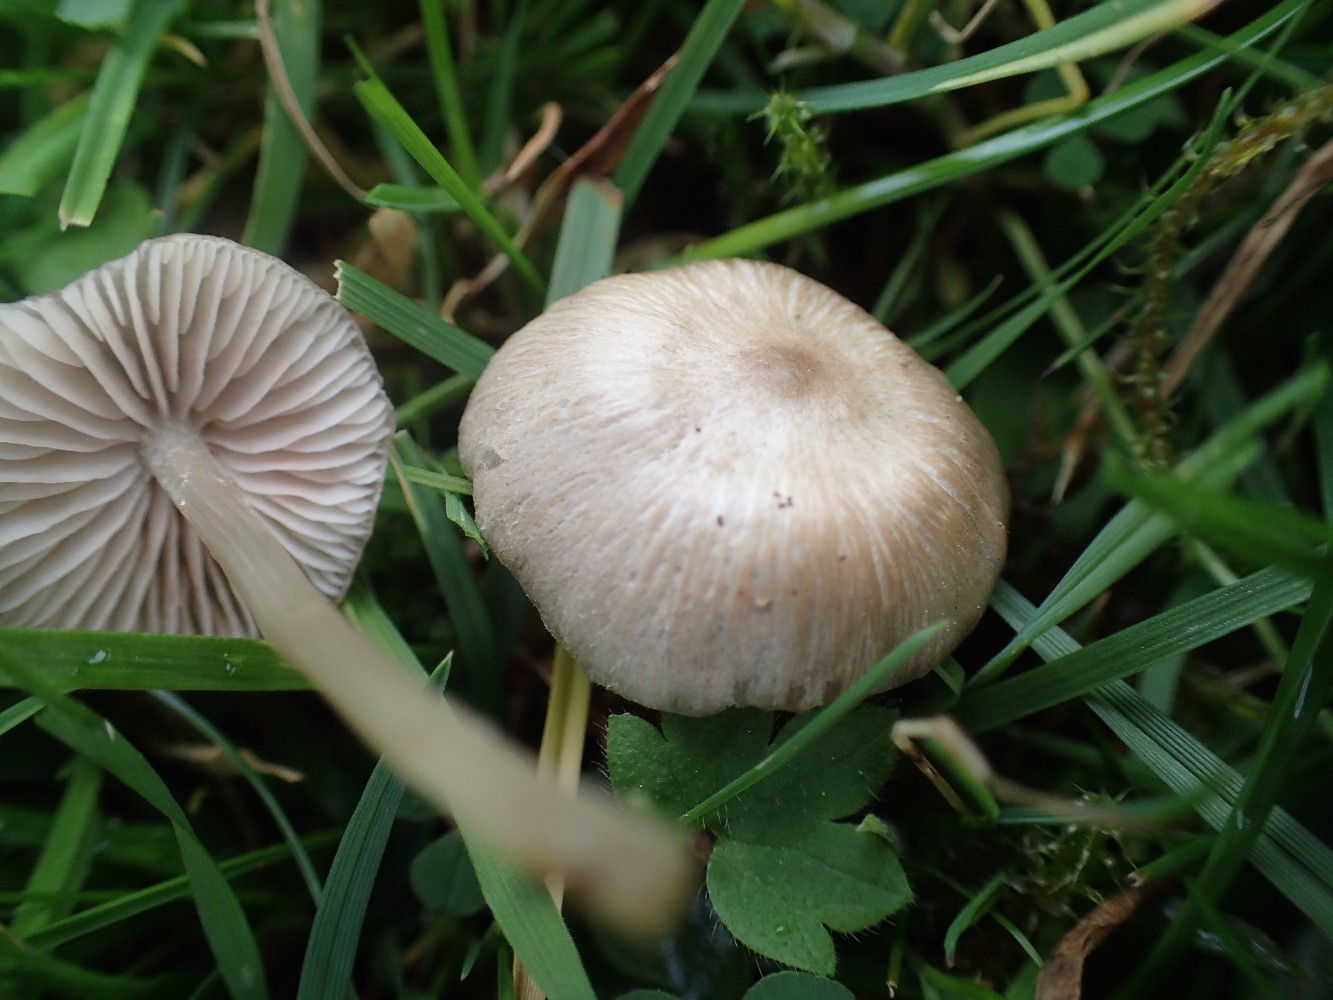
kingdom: Fungi
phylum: Basidiomycota
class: Agaricomycetes
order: Agaricales
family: Entolomataceae
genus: Entoloma
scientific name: Entoloma
